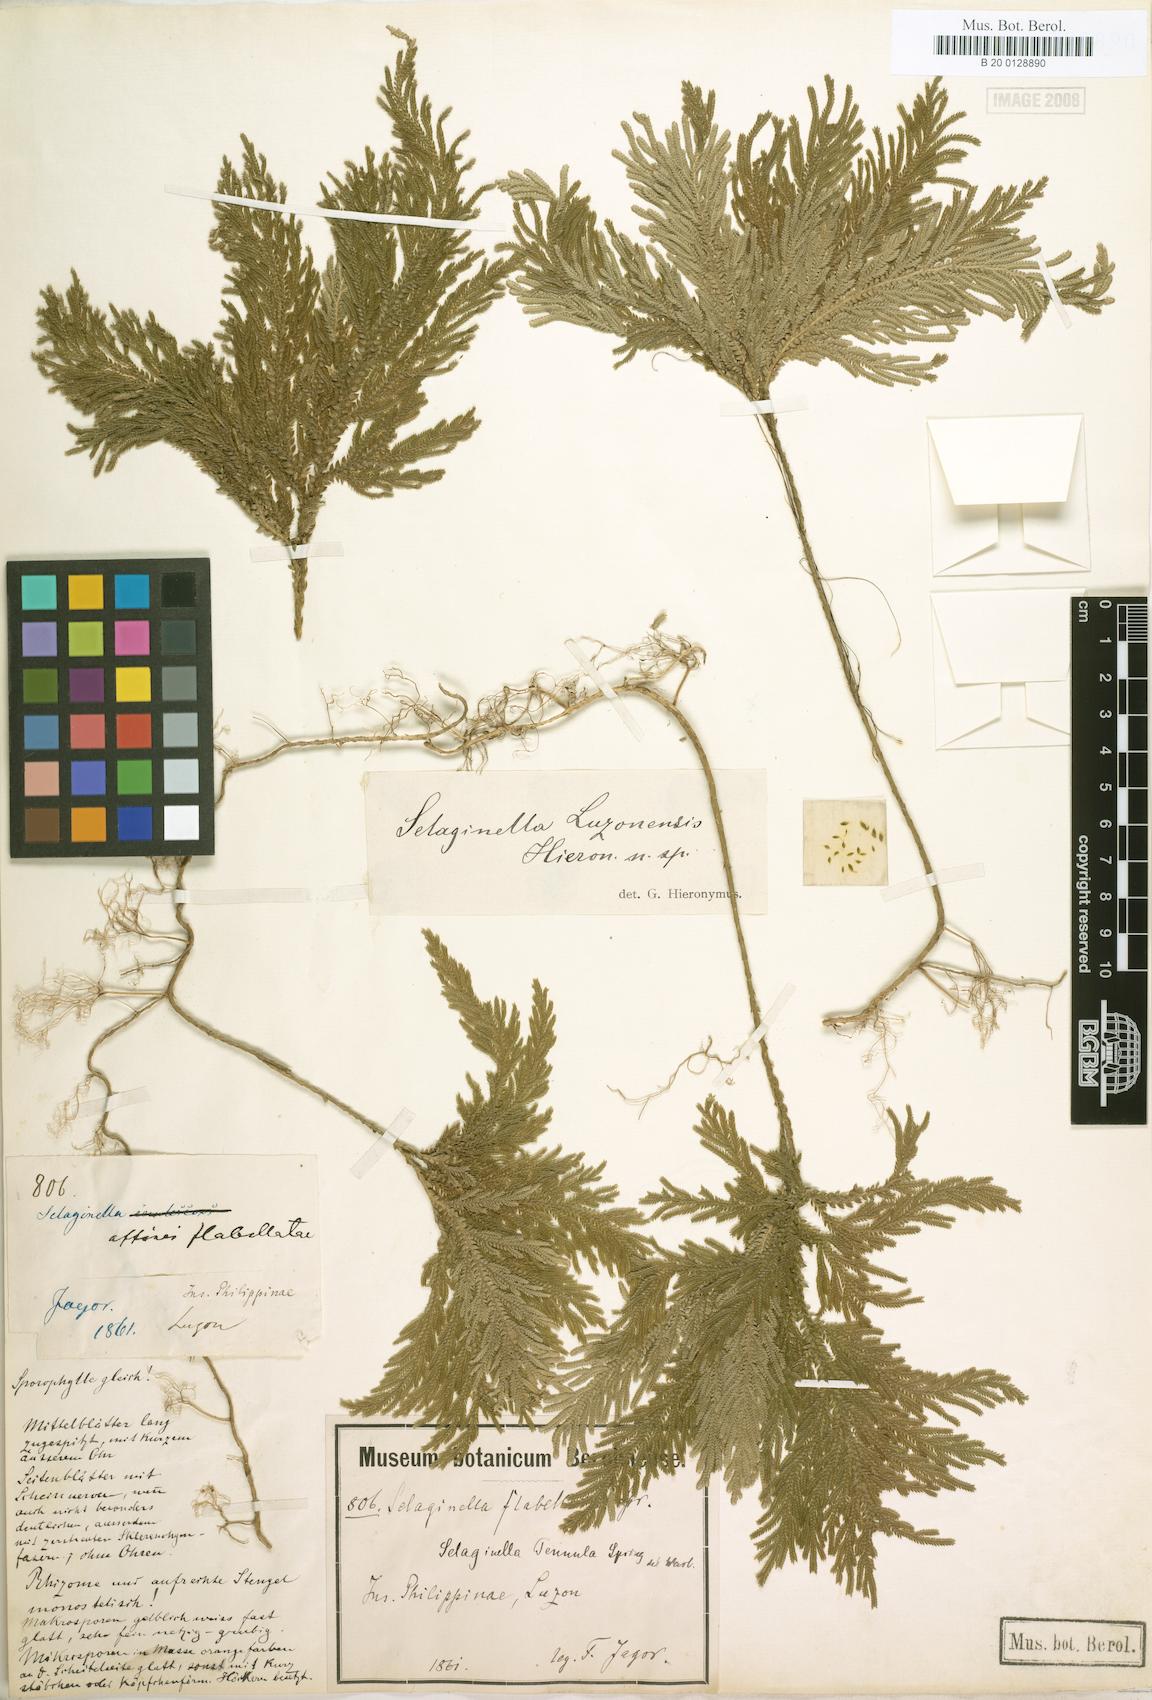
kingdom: Plantae
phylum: Tracheophyta
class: Lycopodiopsida
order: Selaginellales
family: Selaginellaceae
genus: Selaginella
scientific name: Selaginella luzonensis
